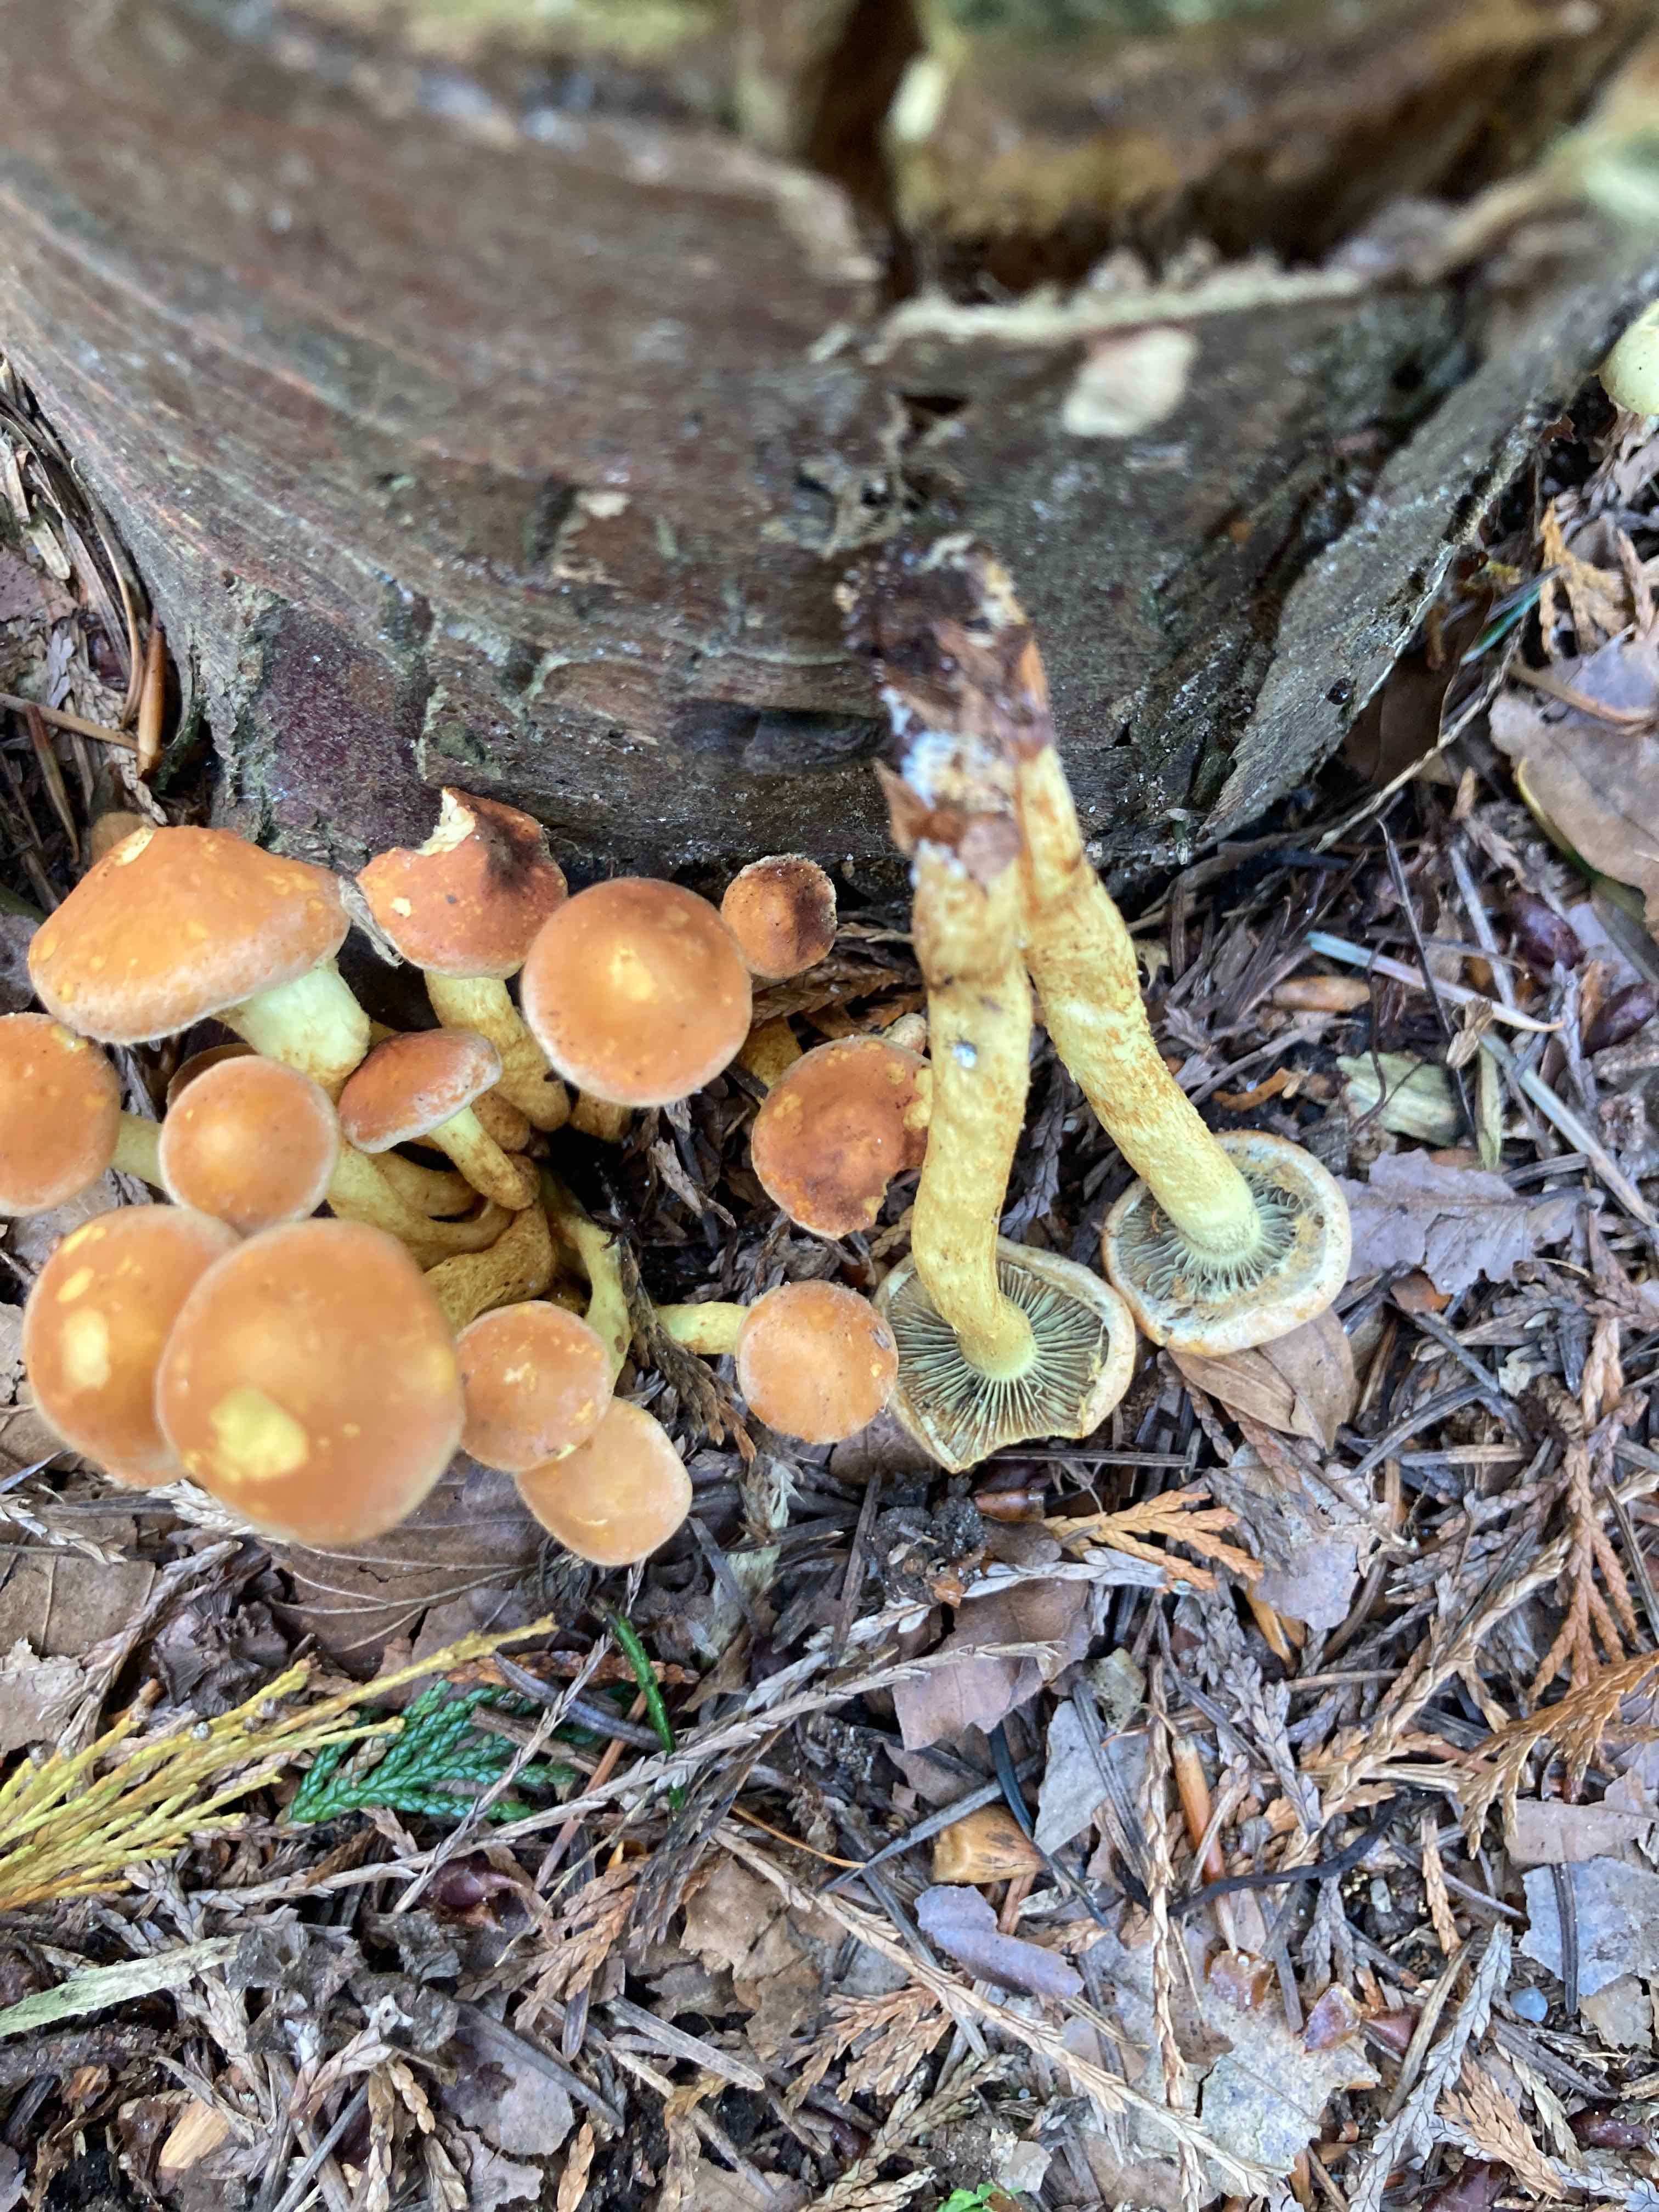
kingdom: Fungi
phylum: Basidiomycota
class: Agaricomycetes
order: Agaricales
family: Strophariaceae
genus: Hypholoma
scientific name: Hypholoma fasciculare
